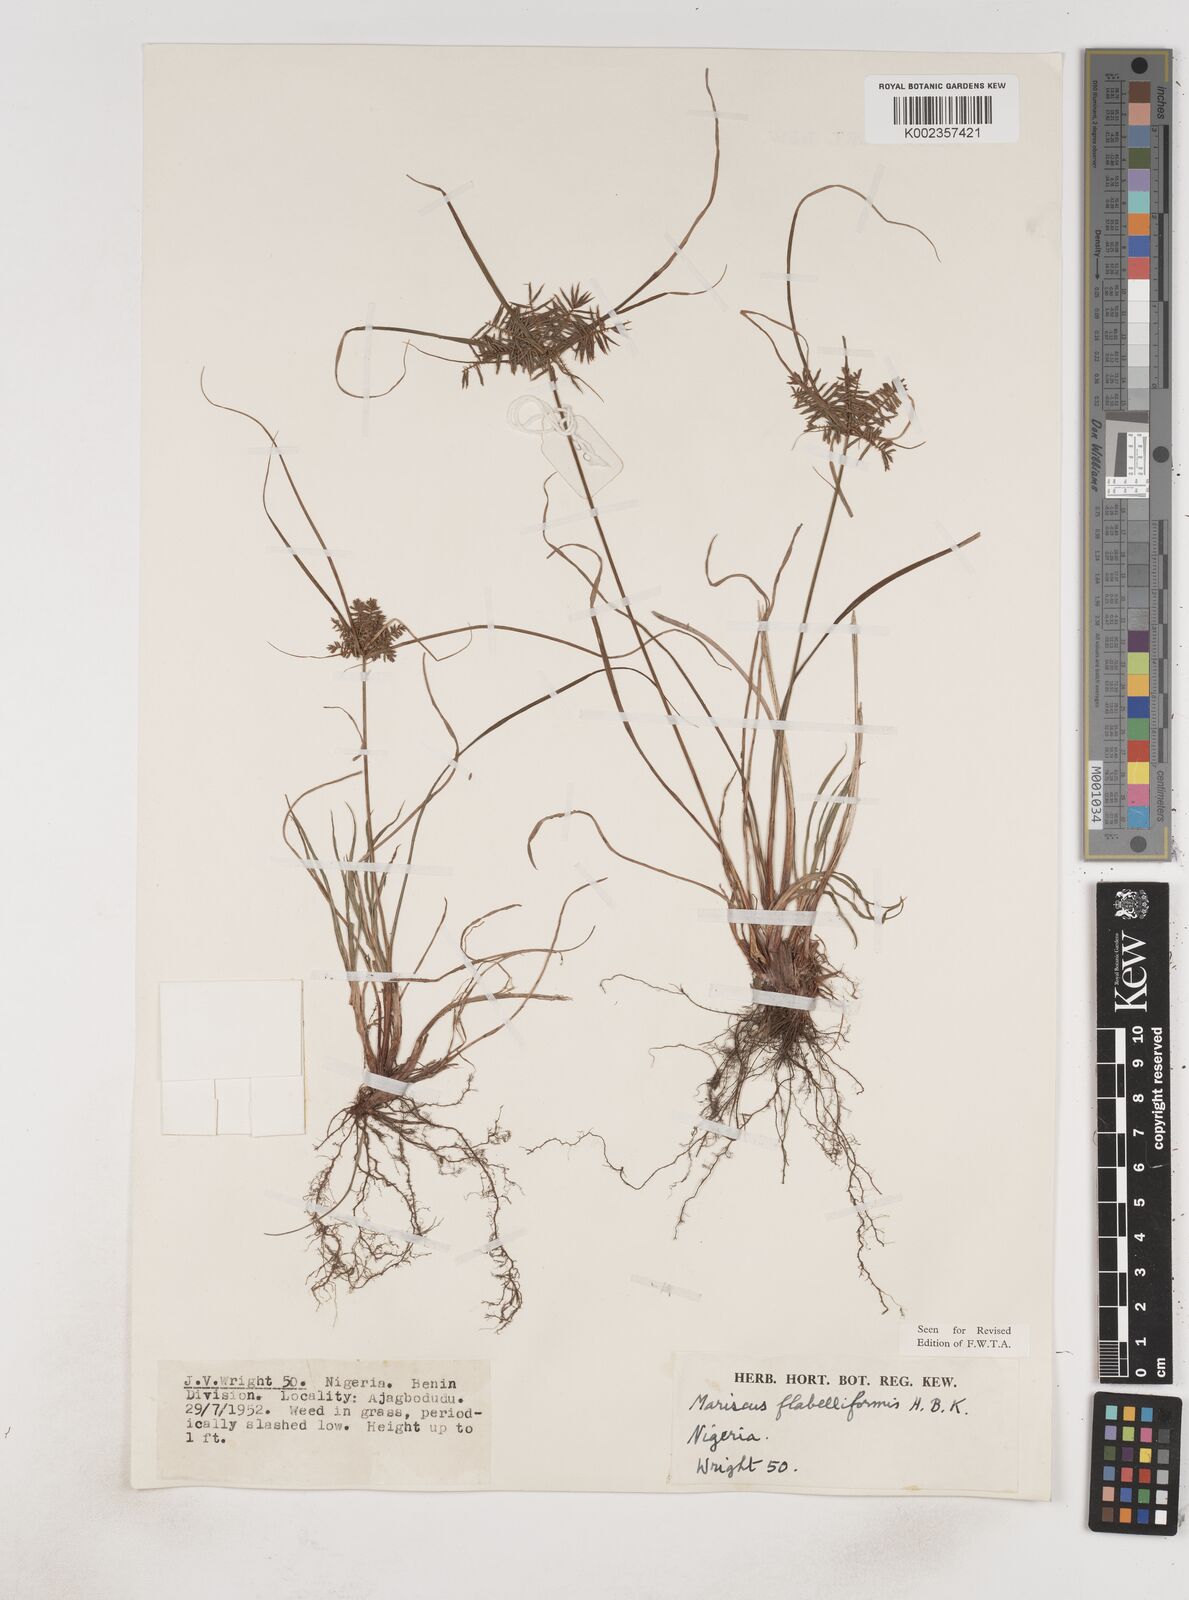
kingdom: Plantae
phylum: Tracheophyta
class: Liliopsida
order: Poales
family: Cyperaceae
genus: Cyperus
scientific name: Cyperus tenuis
